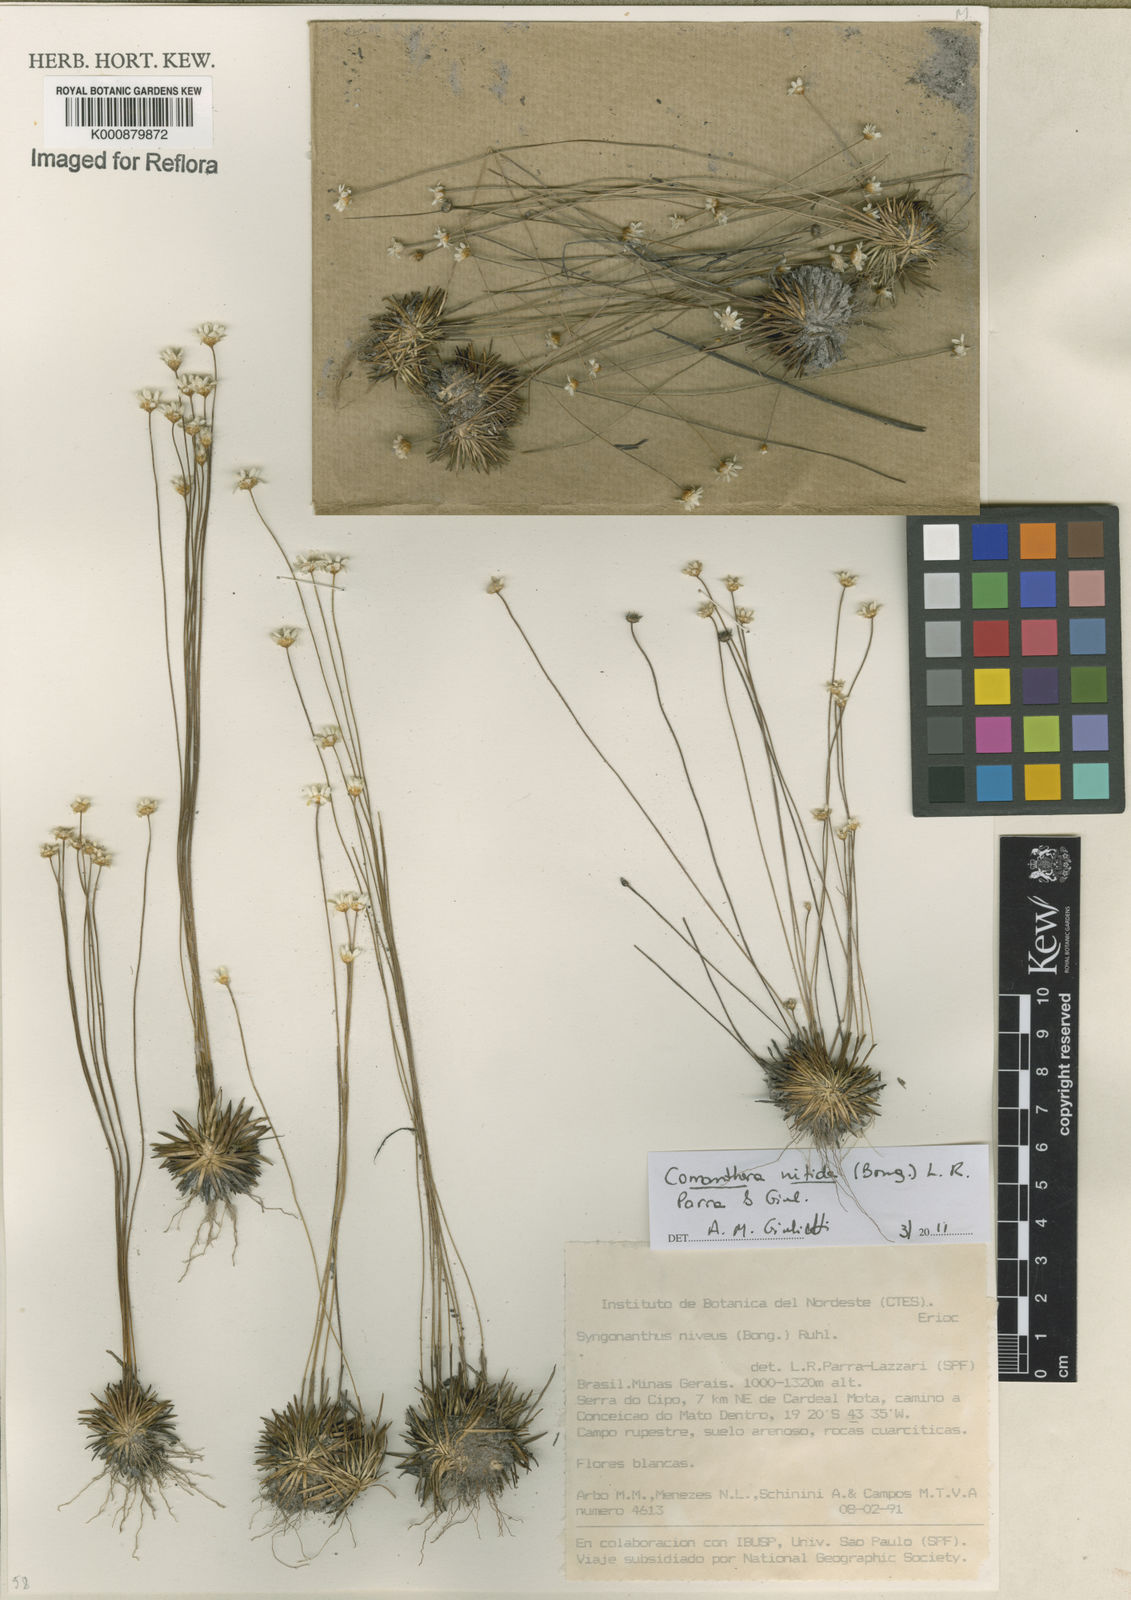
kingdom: Plantae
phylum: Tracheophyta
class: Liliopsida
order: Poales
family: Eriocaulaceae
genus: Comanthera
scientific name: Comanthera nitida
